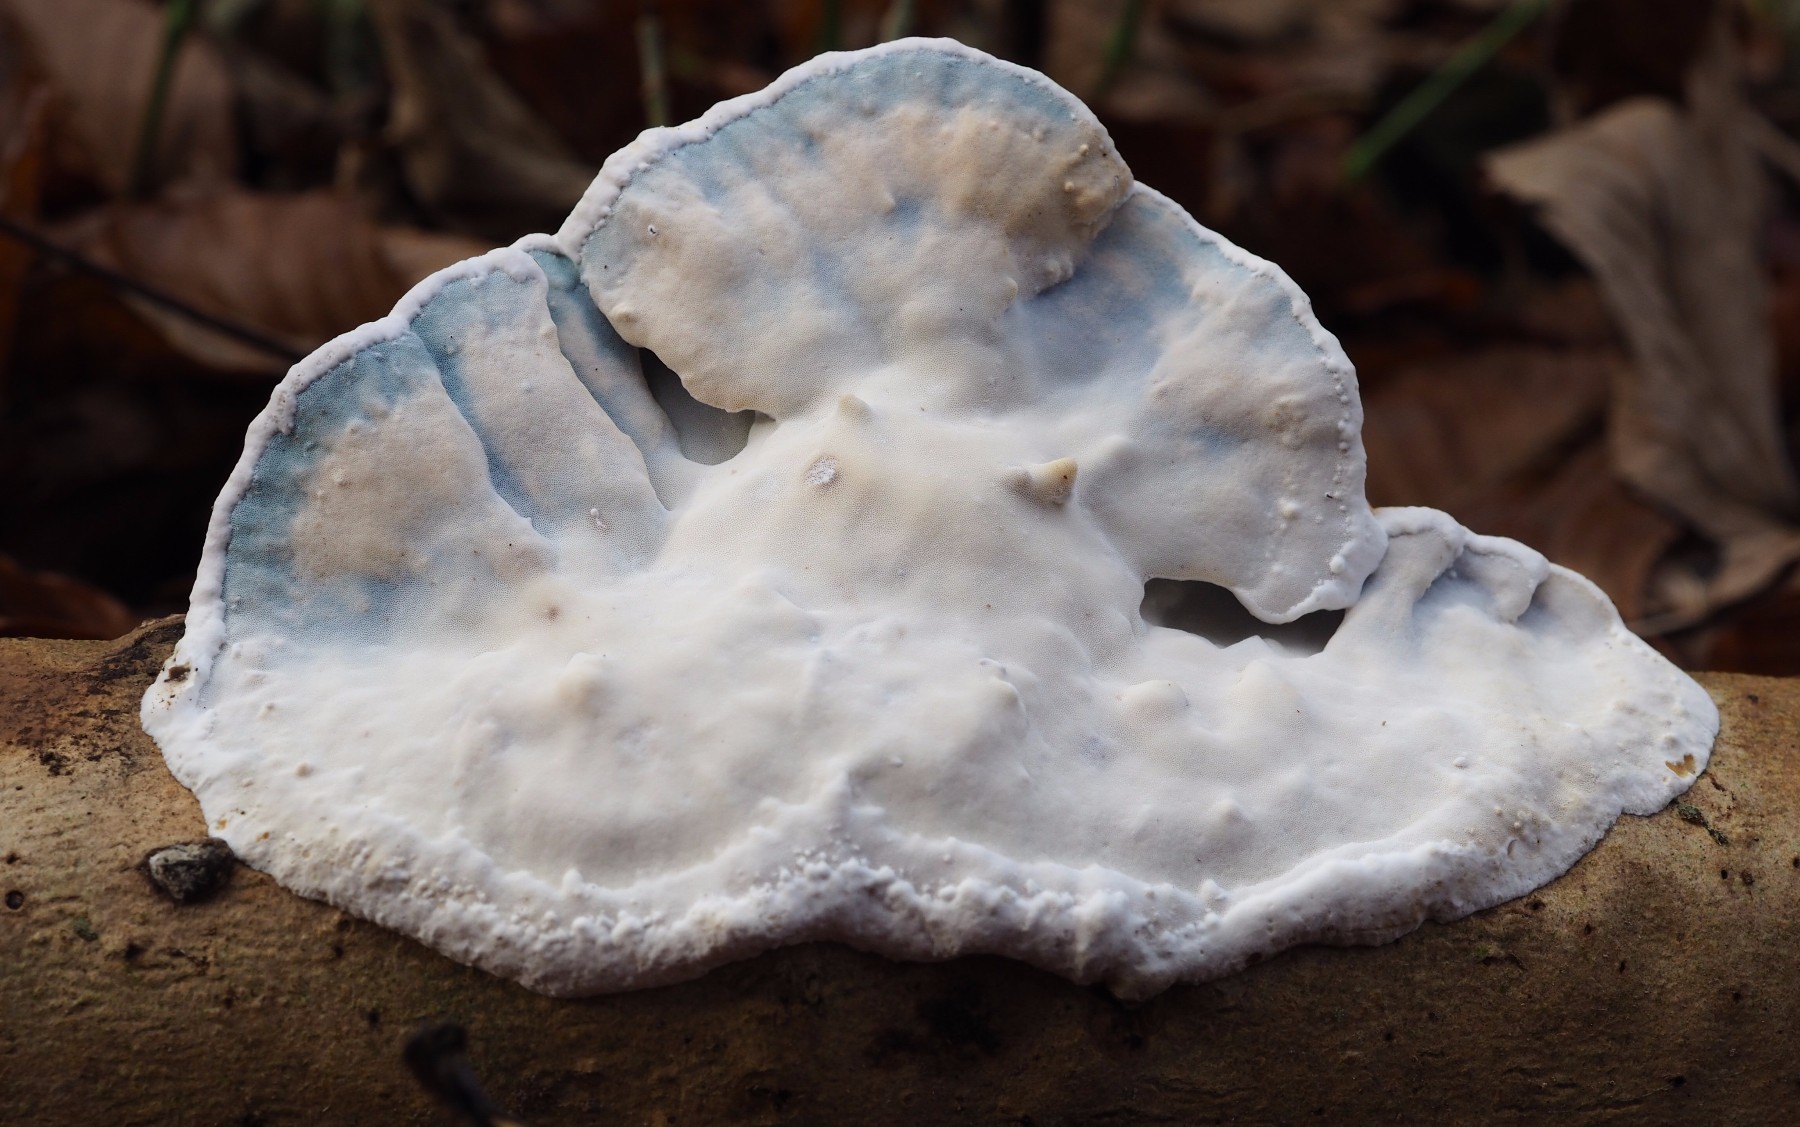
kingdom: Fungi
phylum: Basidiomycota
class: Agaricomycetes
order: Polyporales
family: Incrustoporiaceae
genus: Skeletocutis
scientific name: Skeletocutis nemoralis
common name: stor krystalporesvamp
